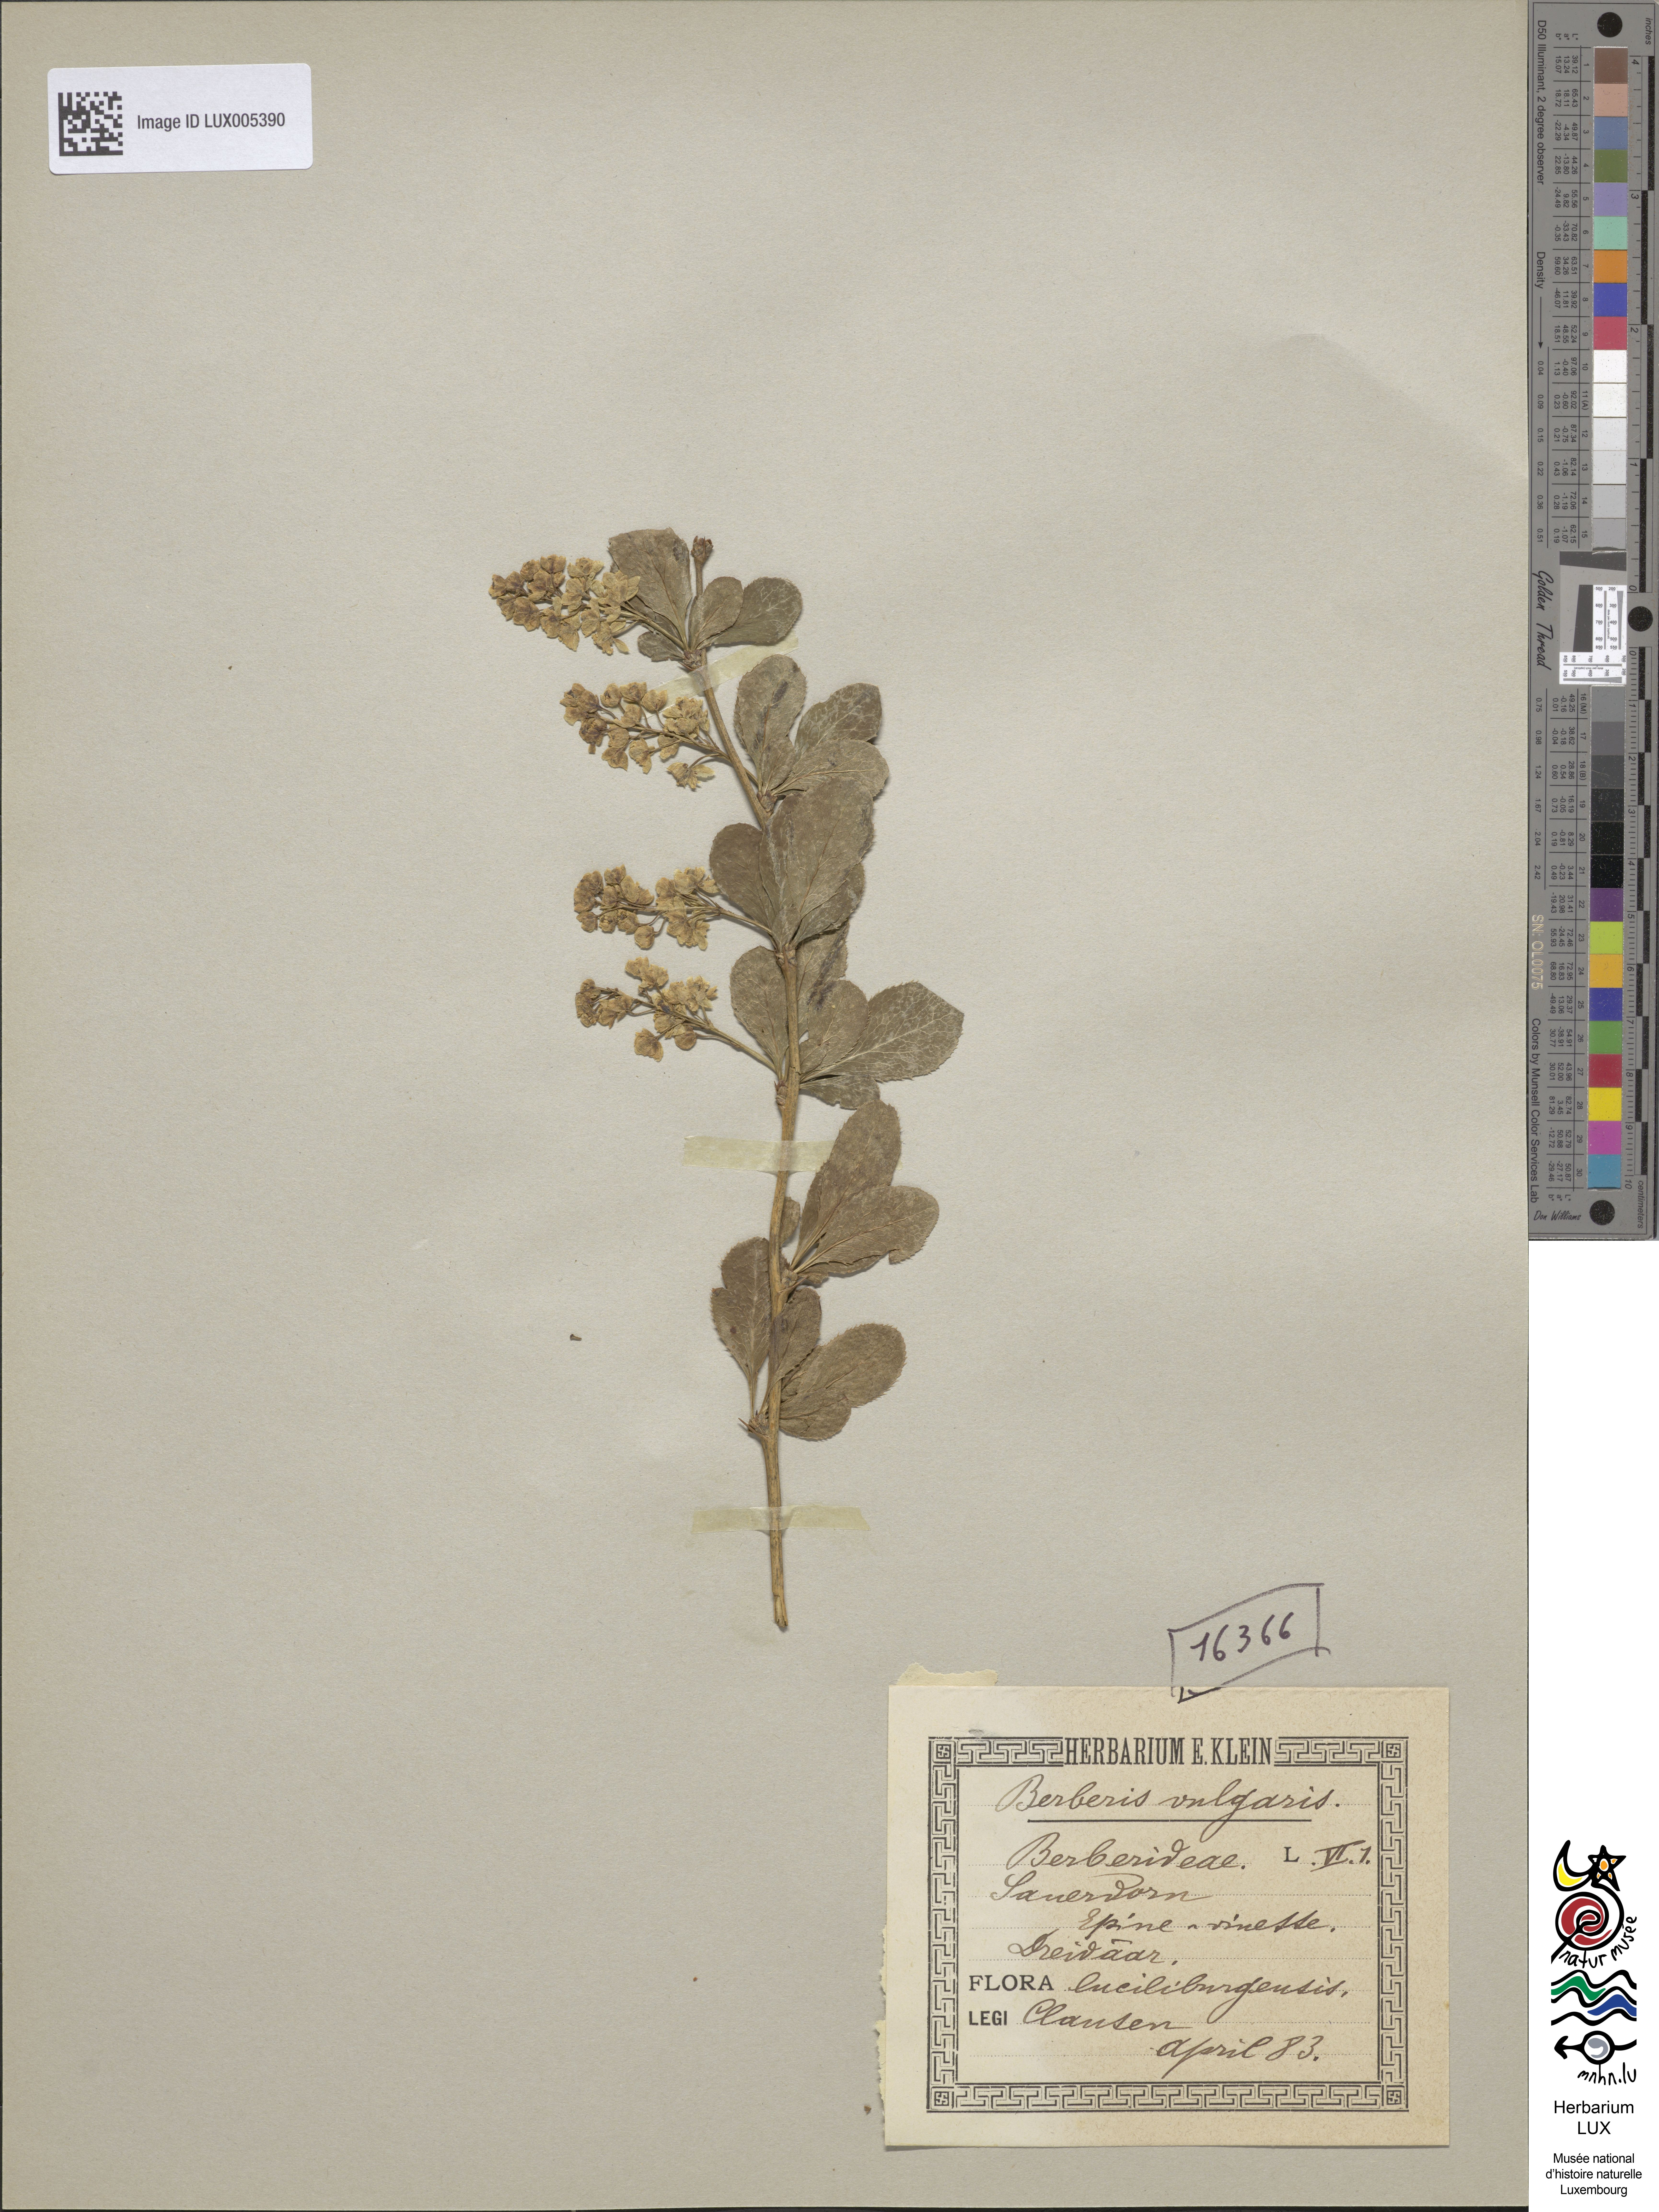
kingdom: Plantae
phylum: Tracheophyta
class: Magnoliopsida
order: Ranunculales
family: Berberidaceae
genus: Berberis
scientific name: Berberis vulgaris
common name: Barberry
